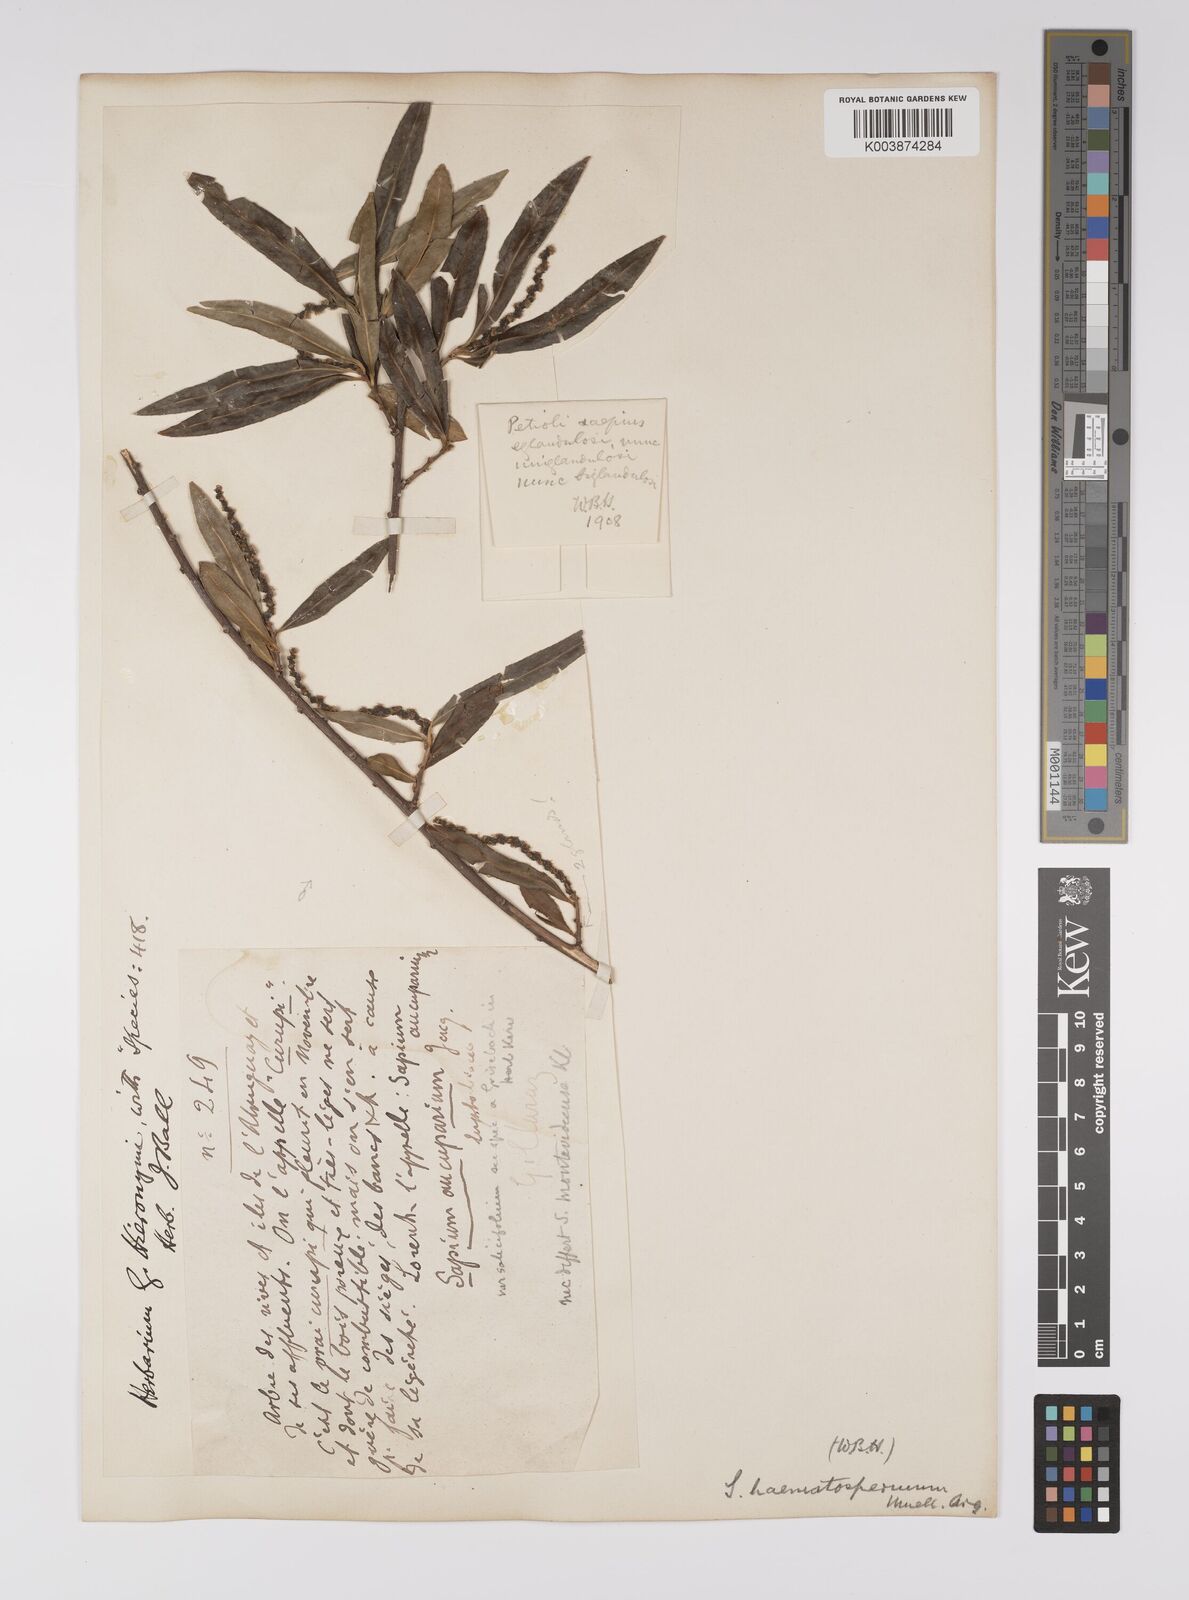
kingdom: Plantae
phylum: Tracheophyta
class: Magnoliopsida
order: Malpighiales
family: Euphorbiaceae
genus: Sapium
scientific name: Sapium haematospermum
